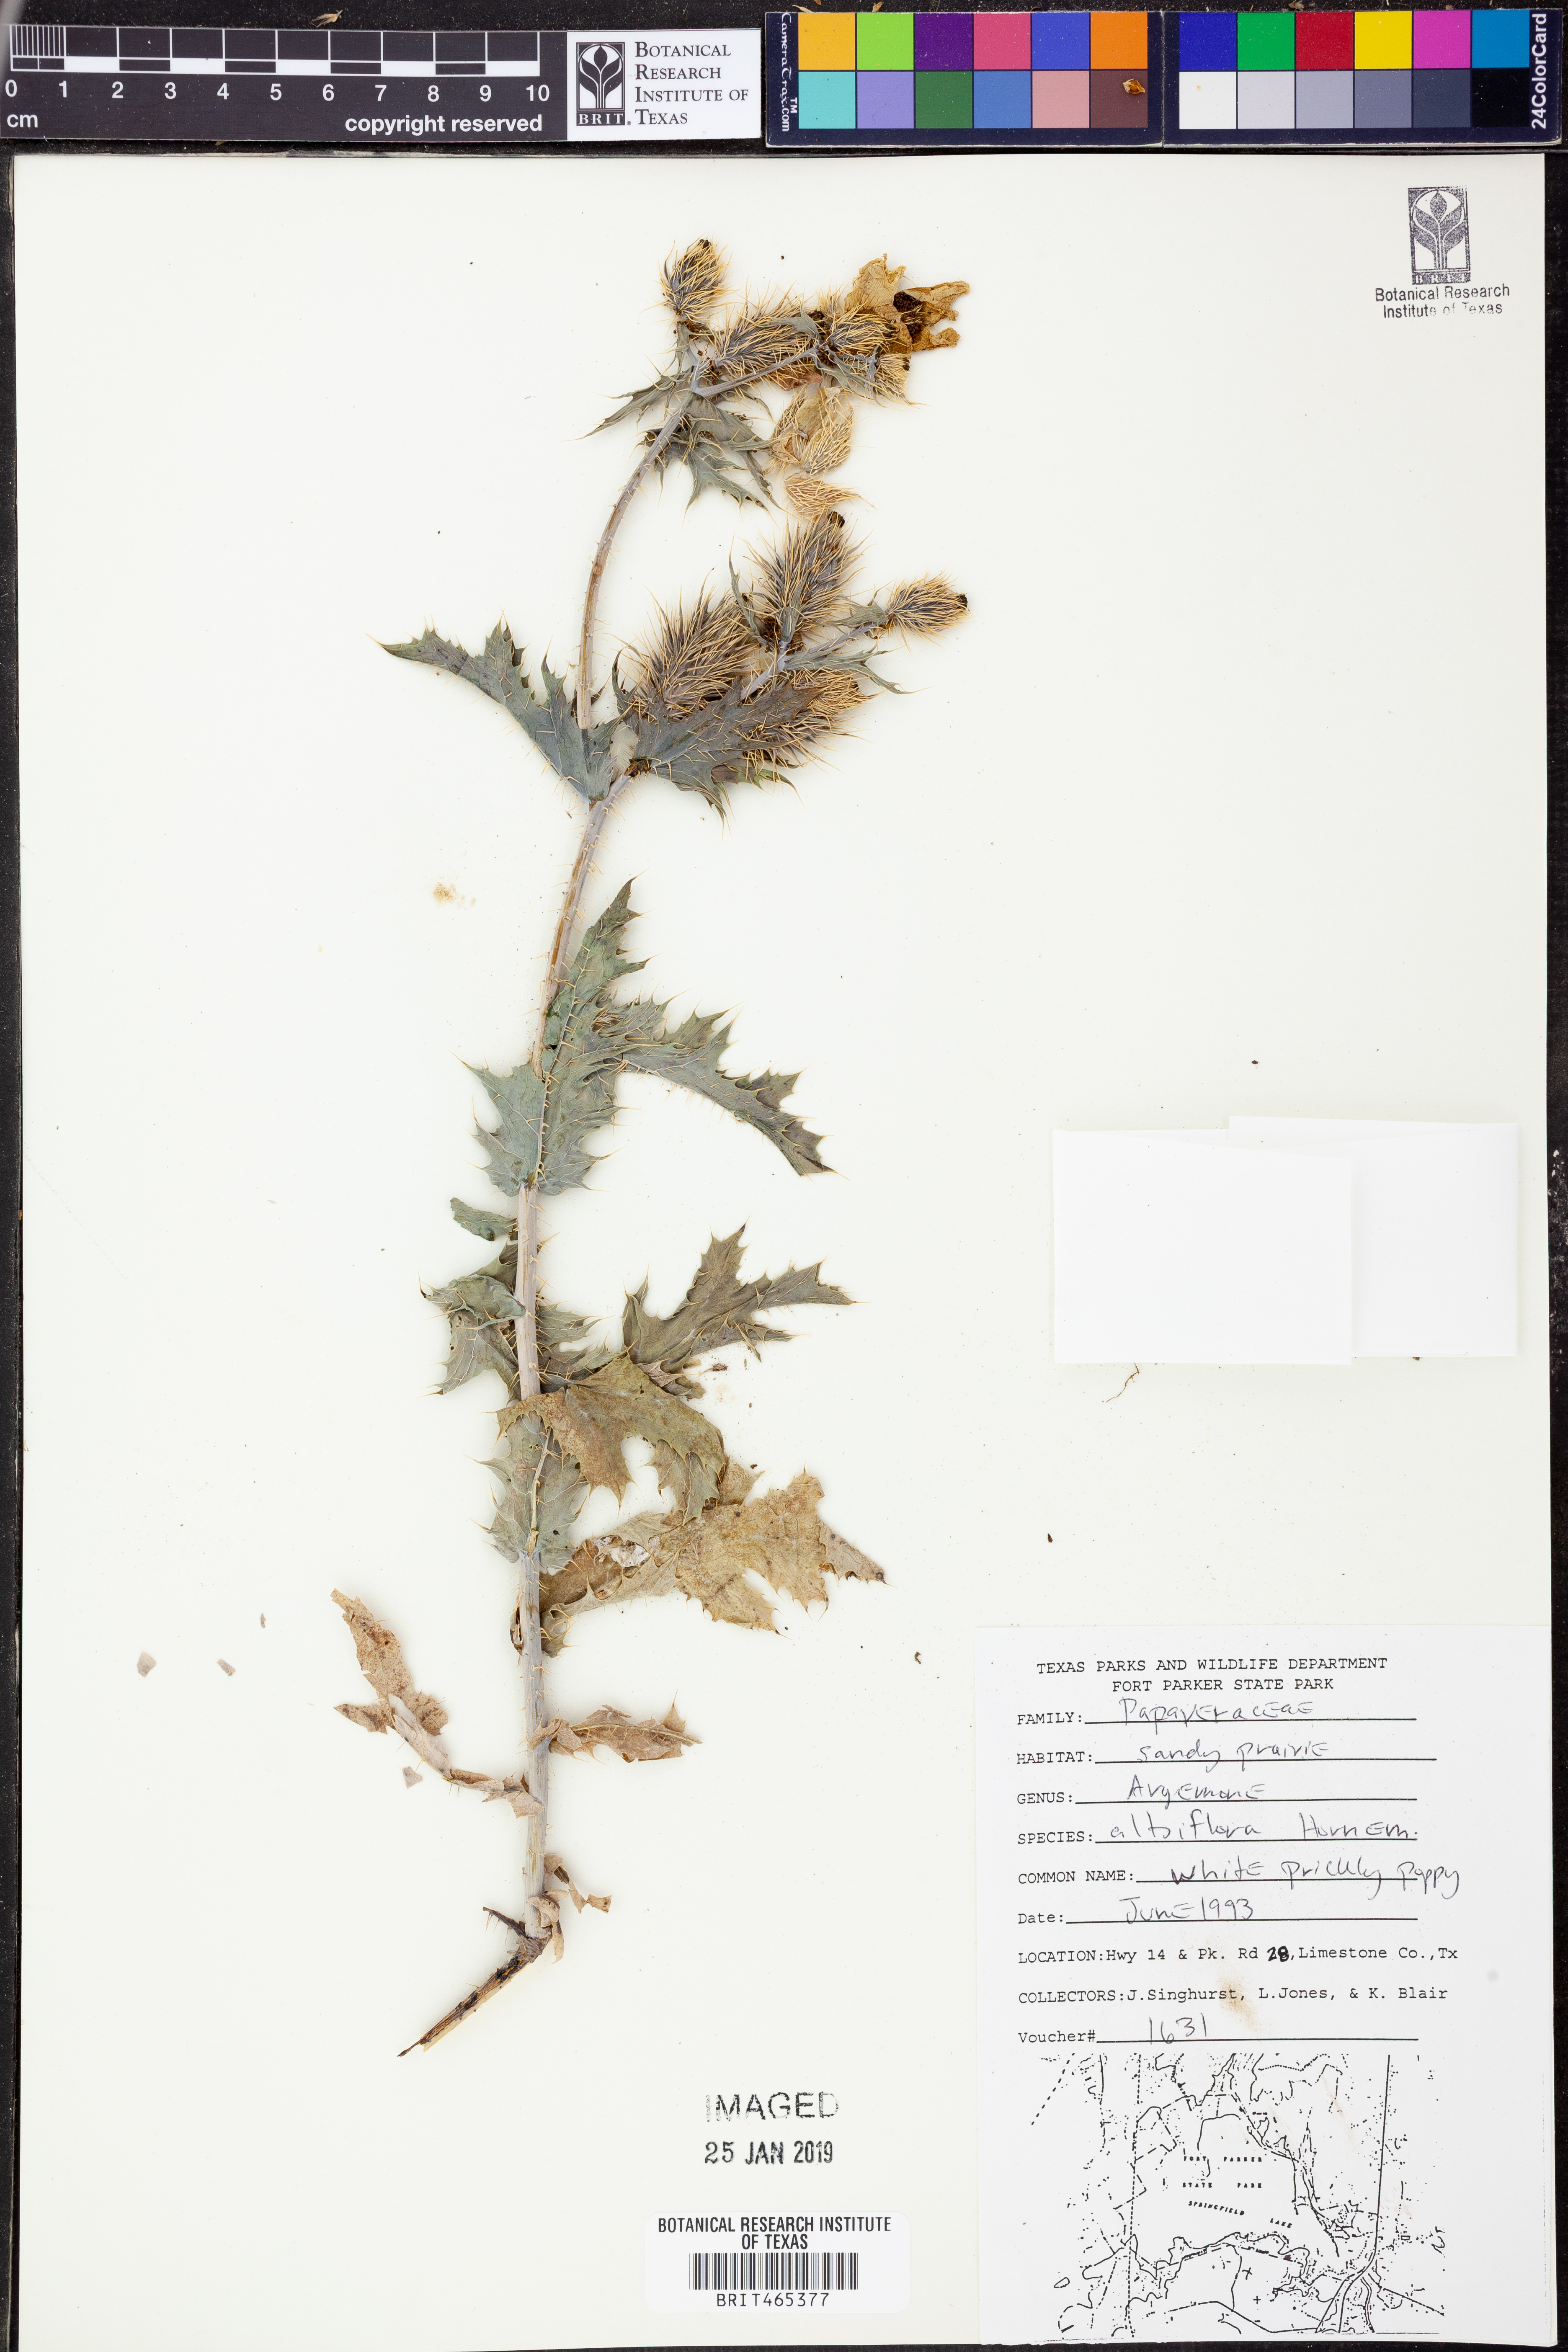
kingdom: Plantae
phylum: Tracheophyta
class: Magnoliopsida
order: Ranunculales
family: Papaveraceae
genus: Argemone
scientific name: Argemone albiflora
